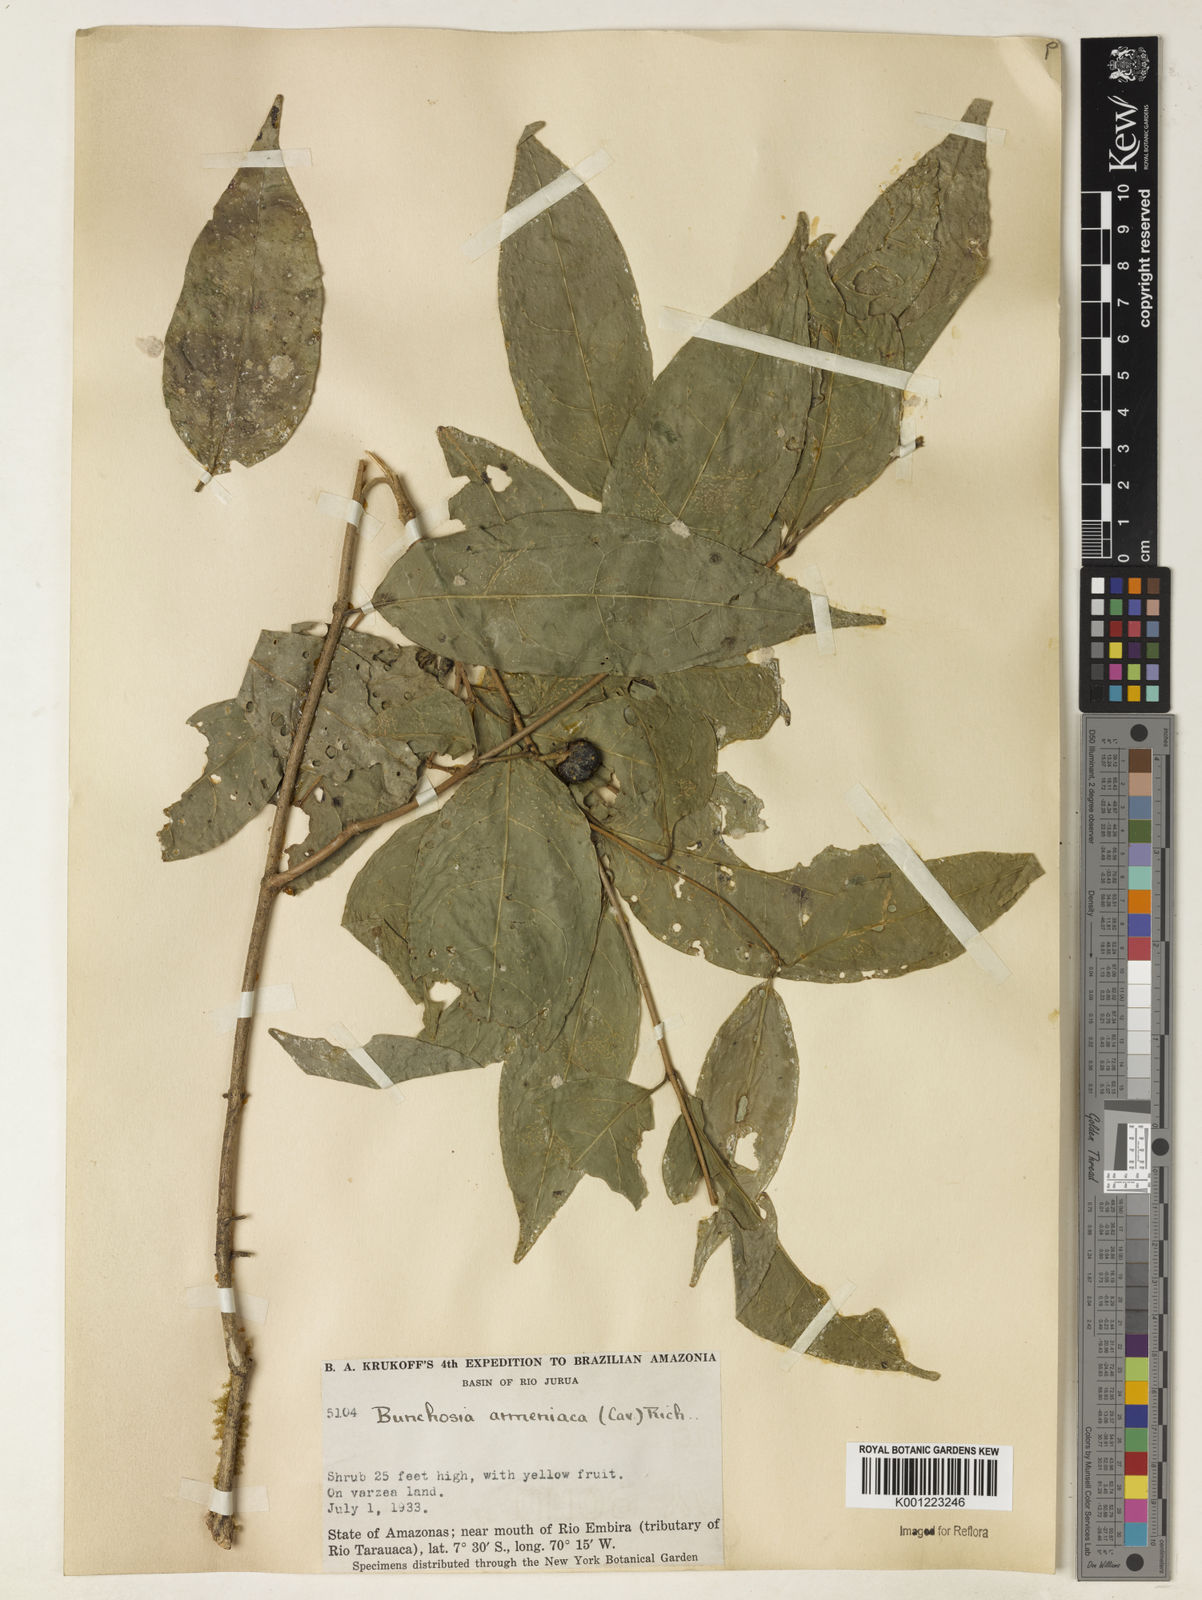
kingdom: Plantae
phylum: Tracheophyta
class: Magnoliopsida
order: Malpighiales
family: Malpighiaceae
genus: Bunchosia
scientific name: Bunchosia armeniaca
